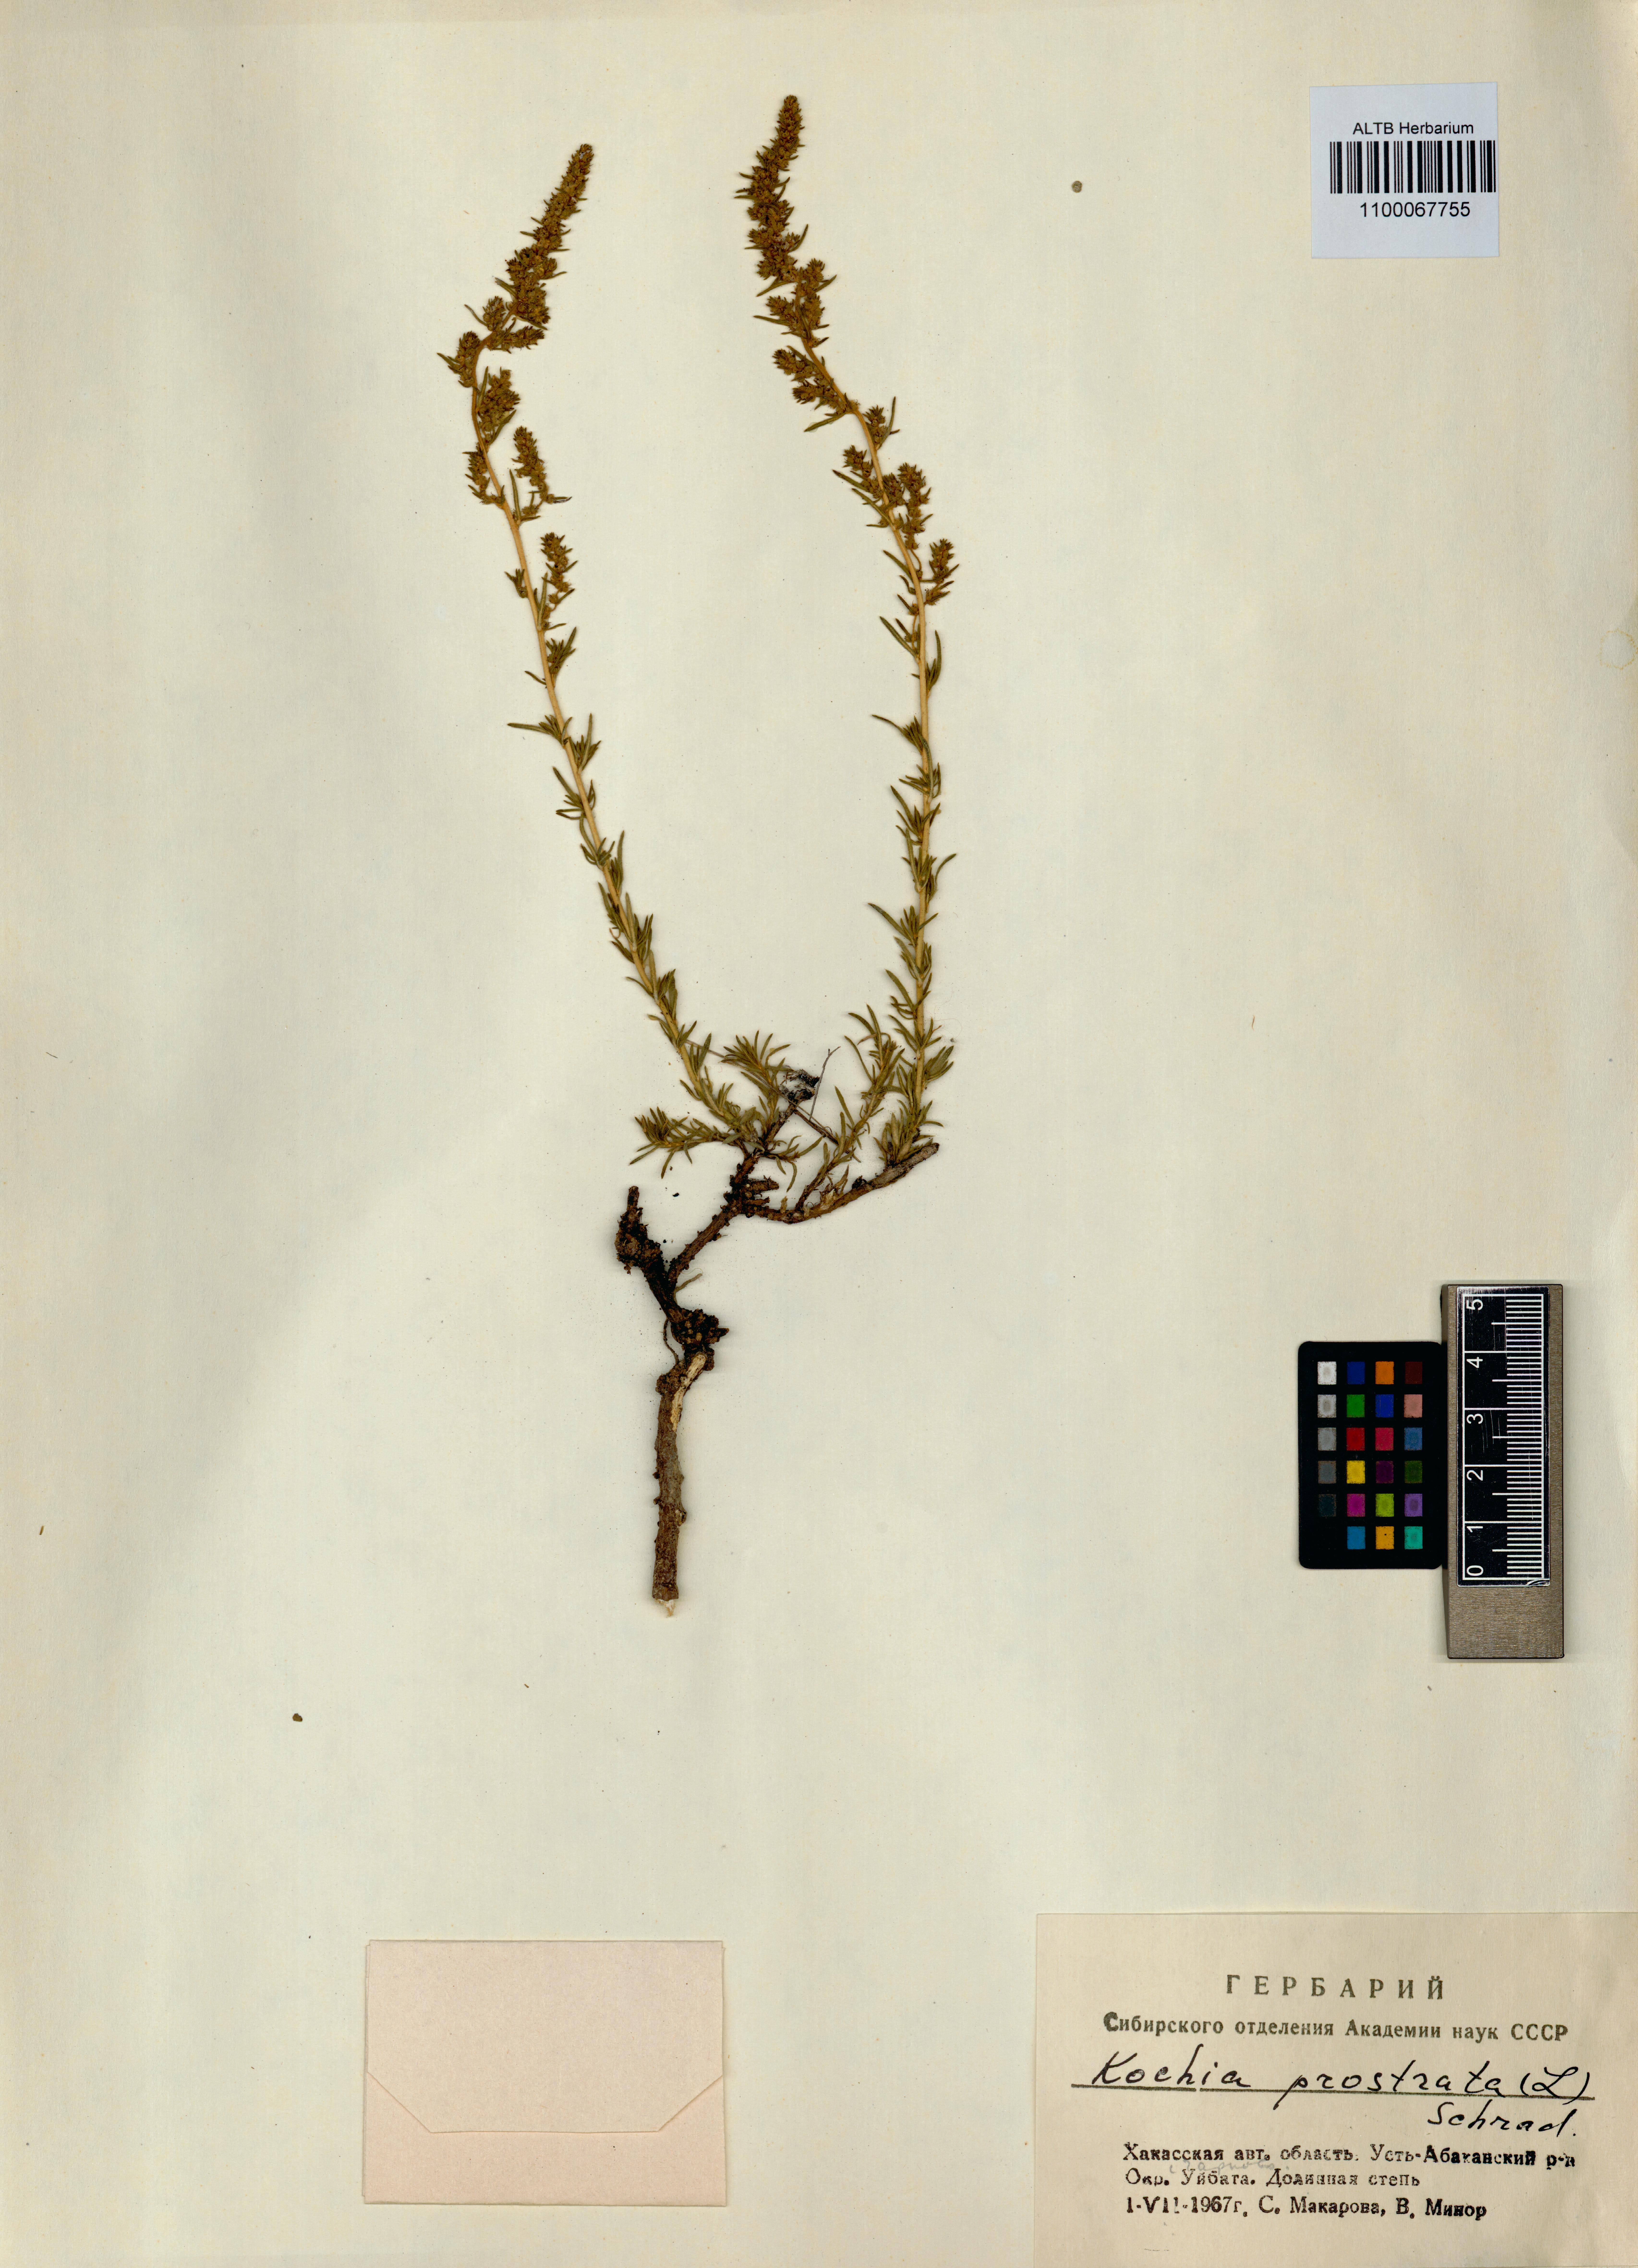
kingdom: Plantae
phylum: Tracheophyta
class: Magnoliopsida
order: Caryophyllales
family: Amaranthaceae
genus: Bassia
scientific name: Bassia prostrata
